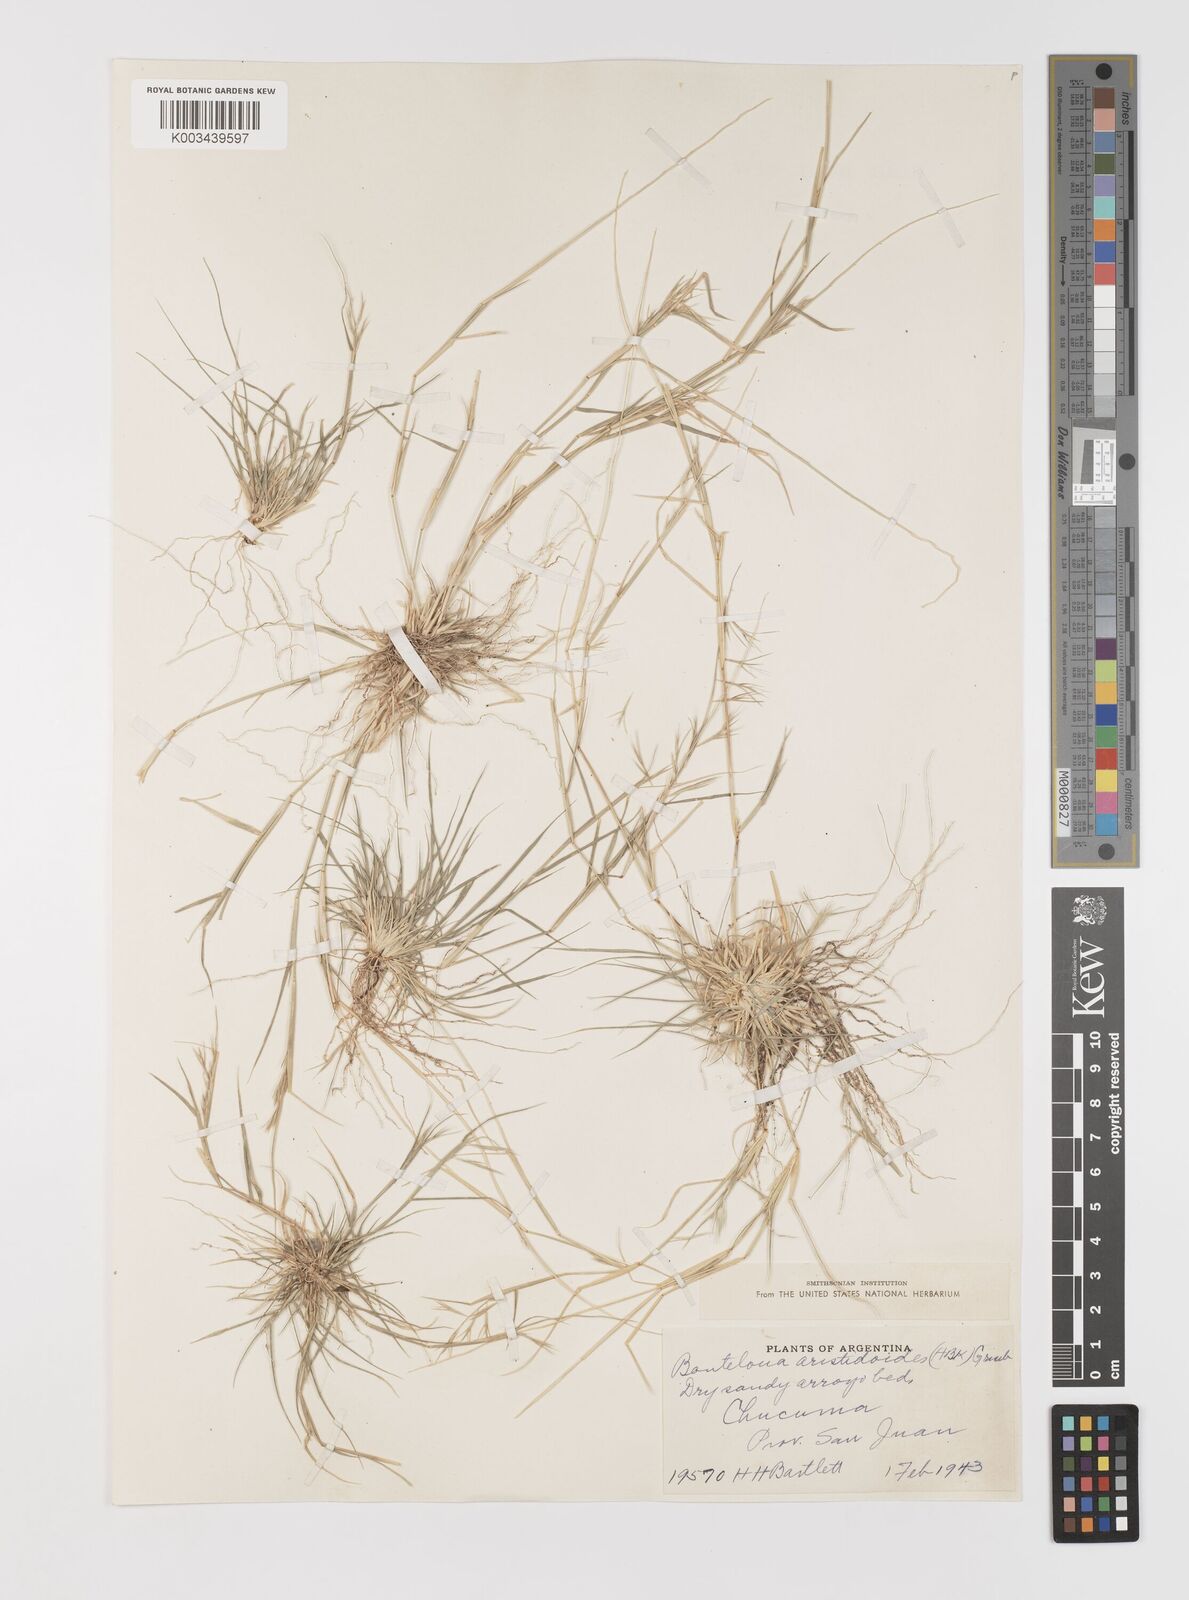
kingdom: Plantae
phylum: Tracheophyta
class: Liliopsida
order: Poales
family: Poaceae
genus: Bouteloua
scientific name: Bouteloua
